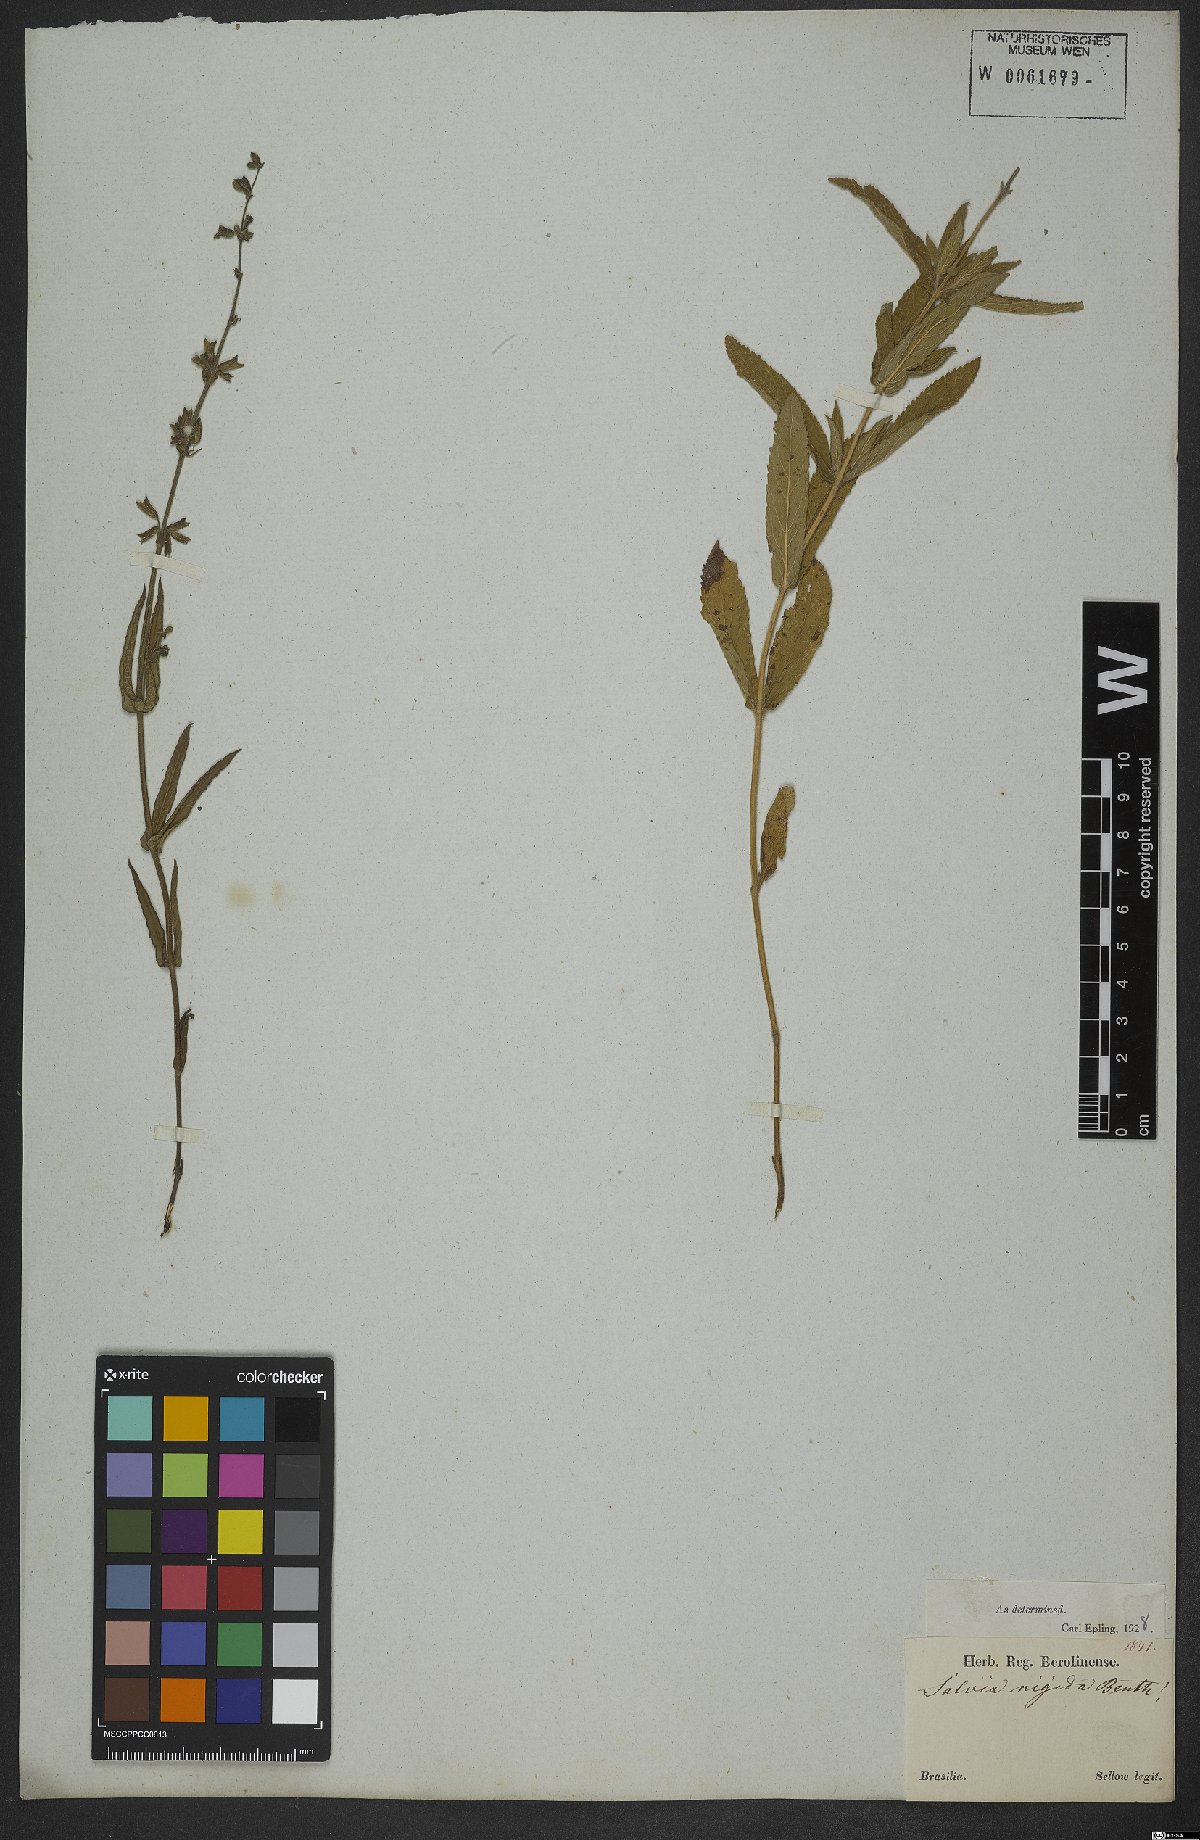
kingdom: Plantae
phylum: Tracheophyta
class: Magnoliopsida
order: Lamiales
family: Lamiaceae
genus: Salvia
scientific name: Salvia nervosa
